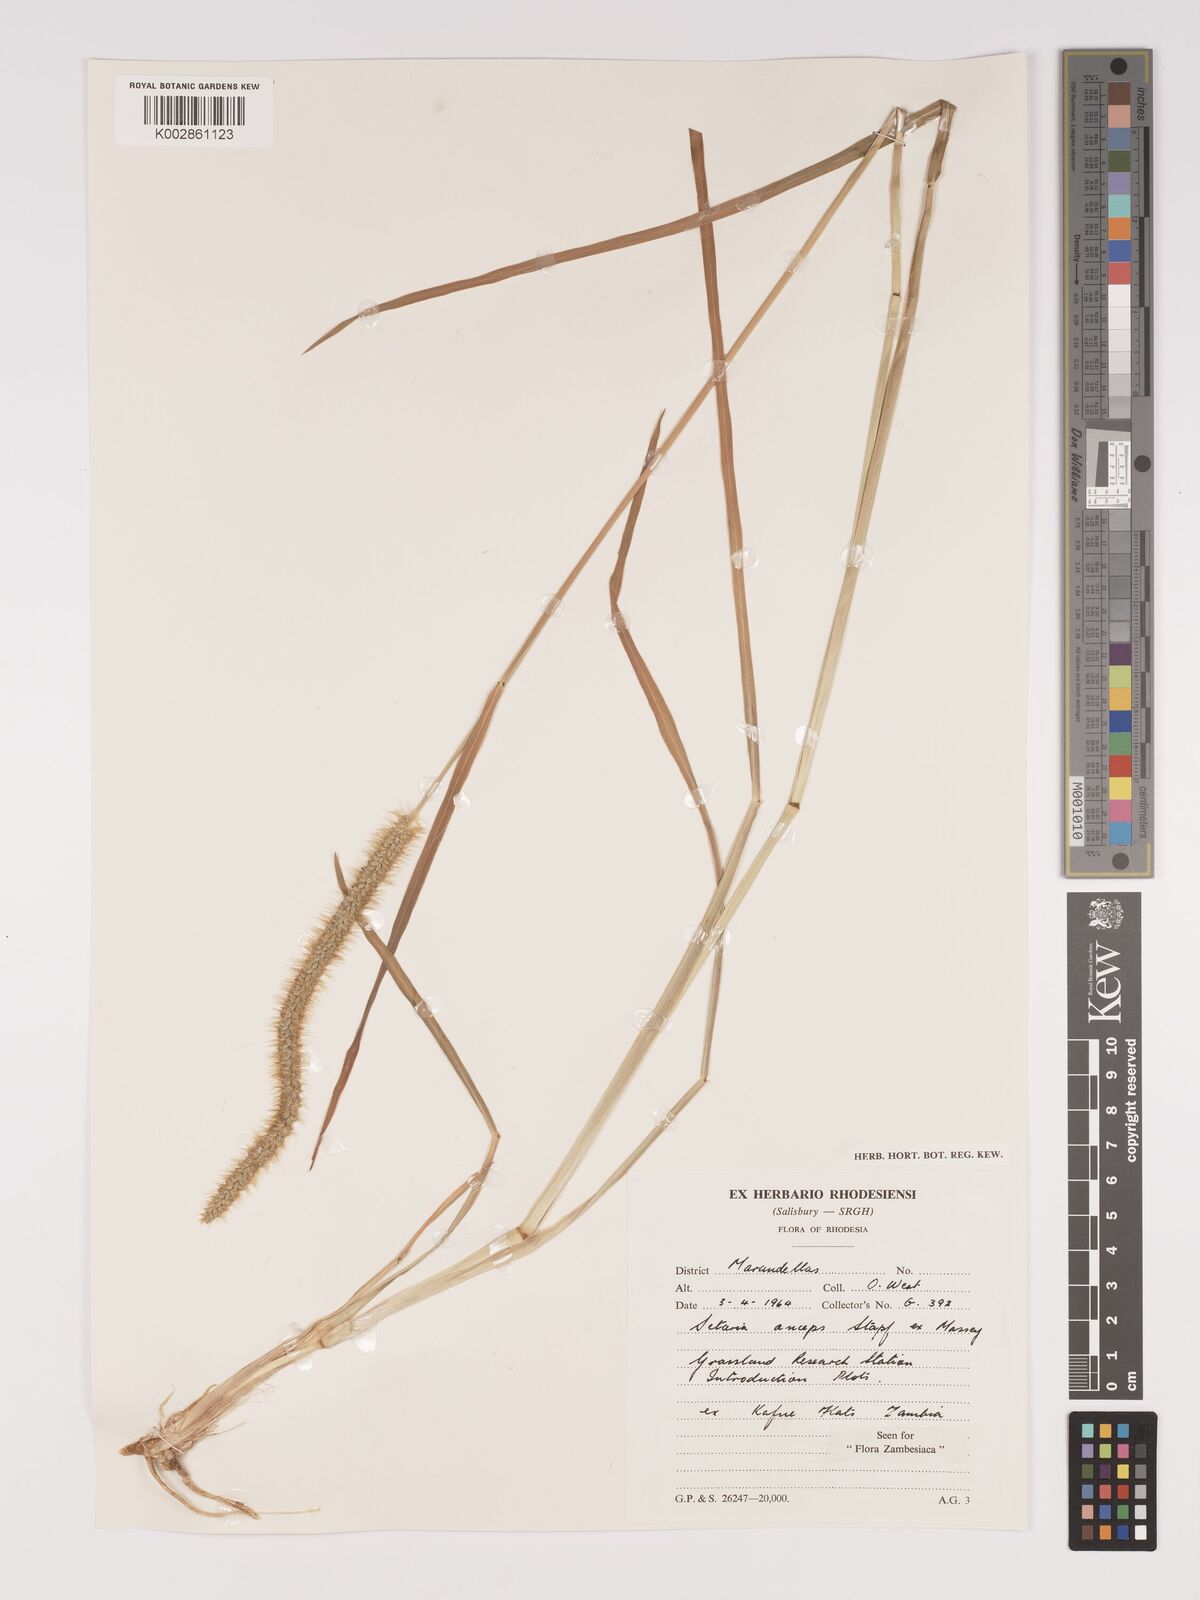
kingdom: Plantae
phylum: Tracheophyta
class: Liliopsida
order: Poales
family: Poaceae
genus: Setaria
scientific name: Setaria sphacelata
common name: African bristlegrass
